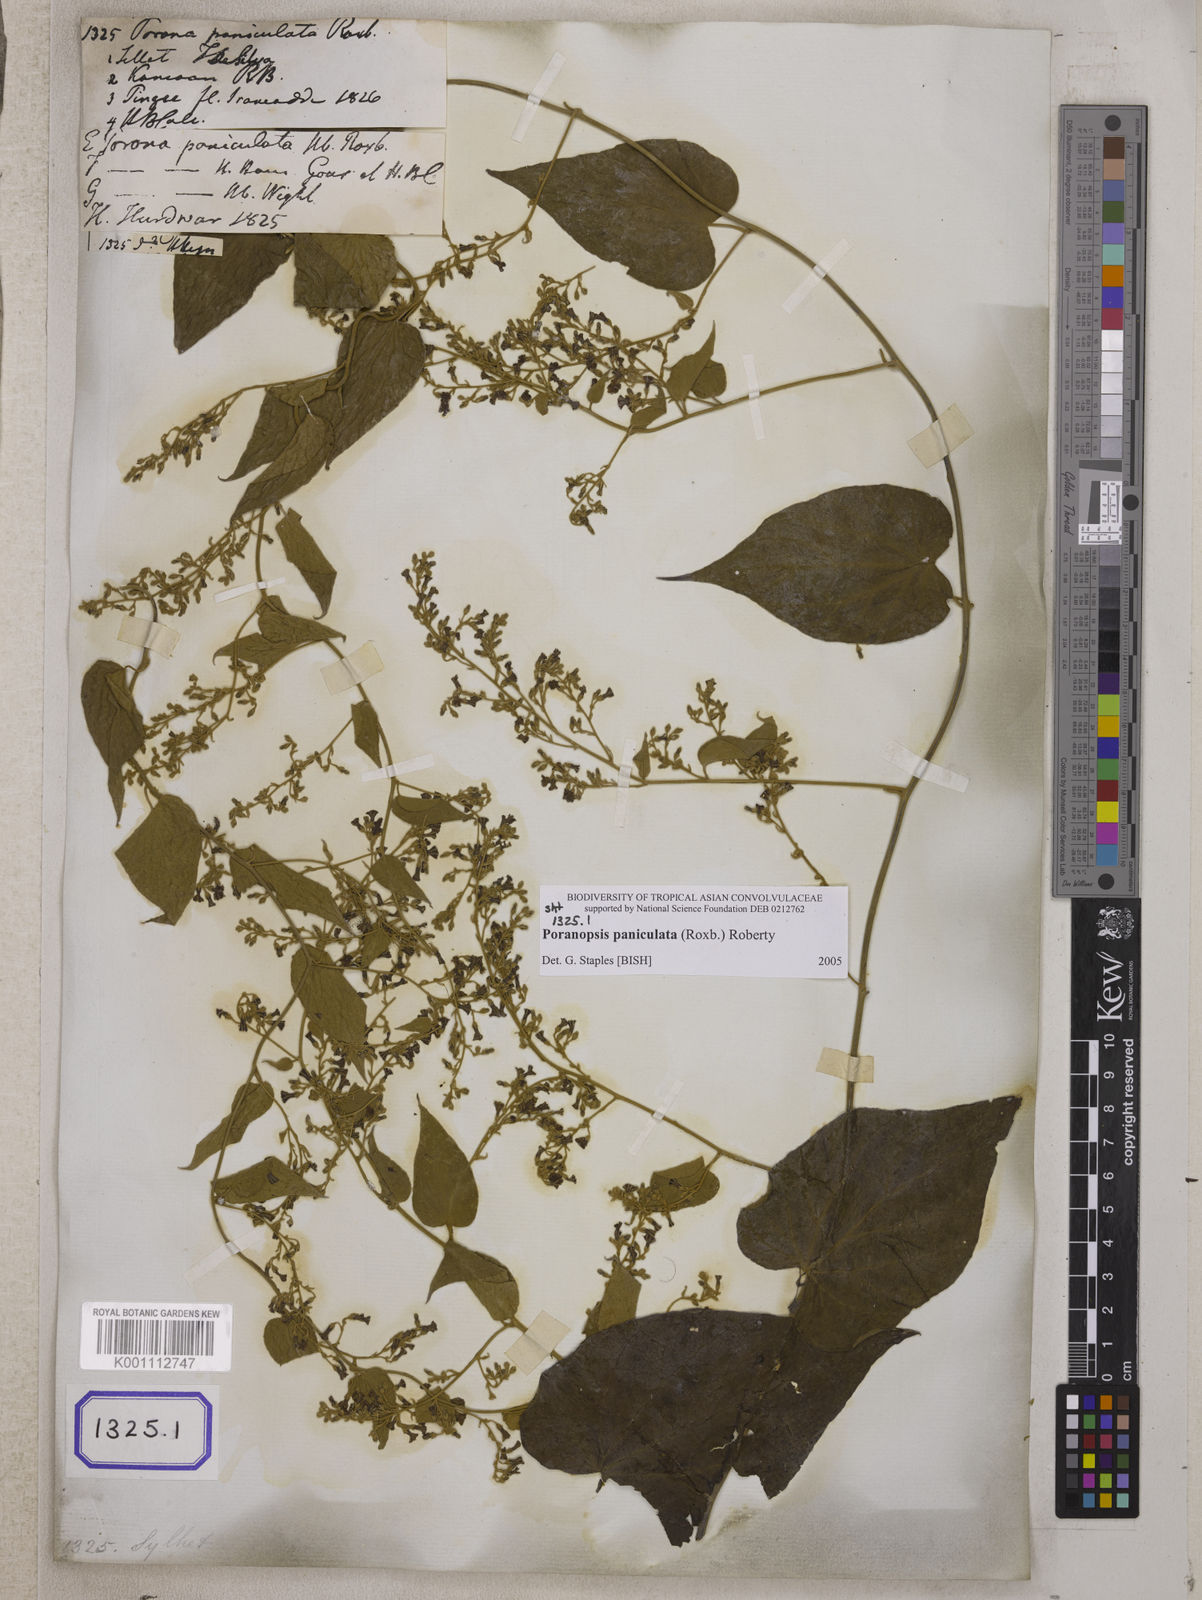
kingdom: Plantae
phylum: Tracheophyta
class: Magnoliopsida
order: Solanales
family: Convolvulaceae
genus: Poranopsis
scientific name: Poranopsis paniculata
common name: Bridal bouquet
